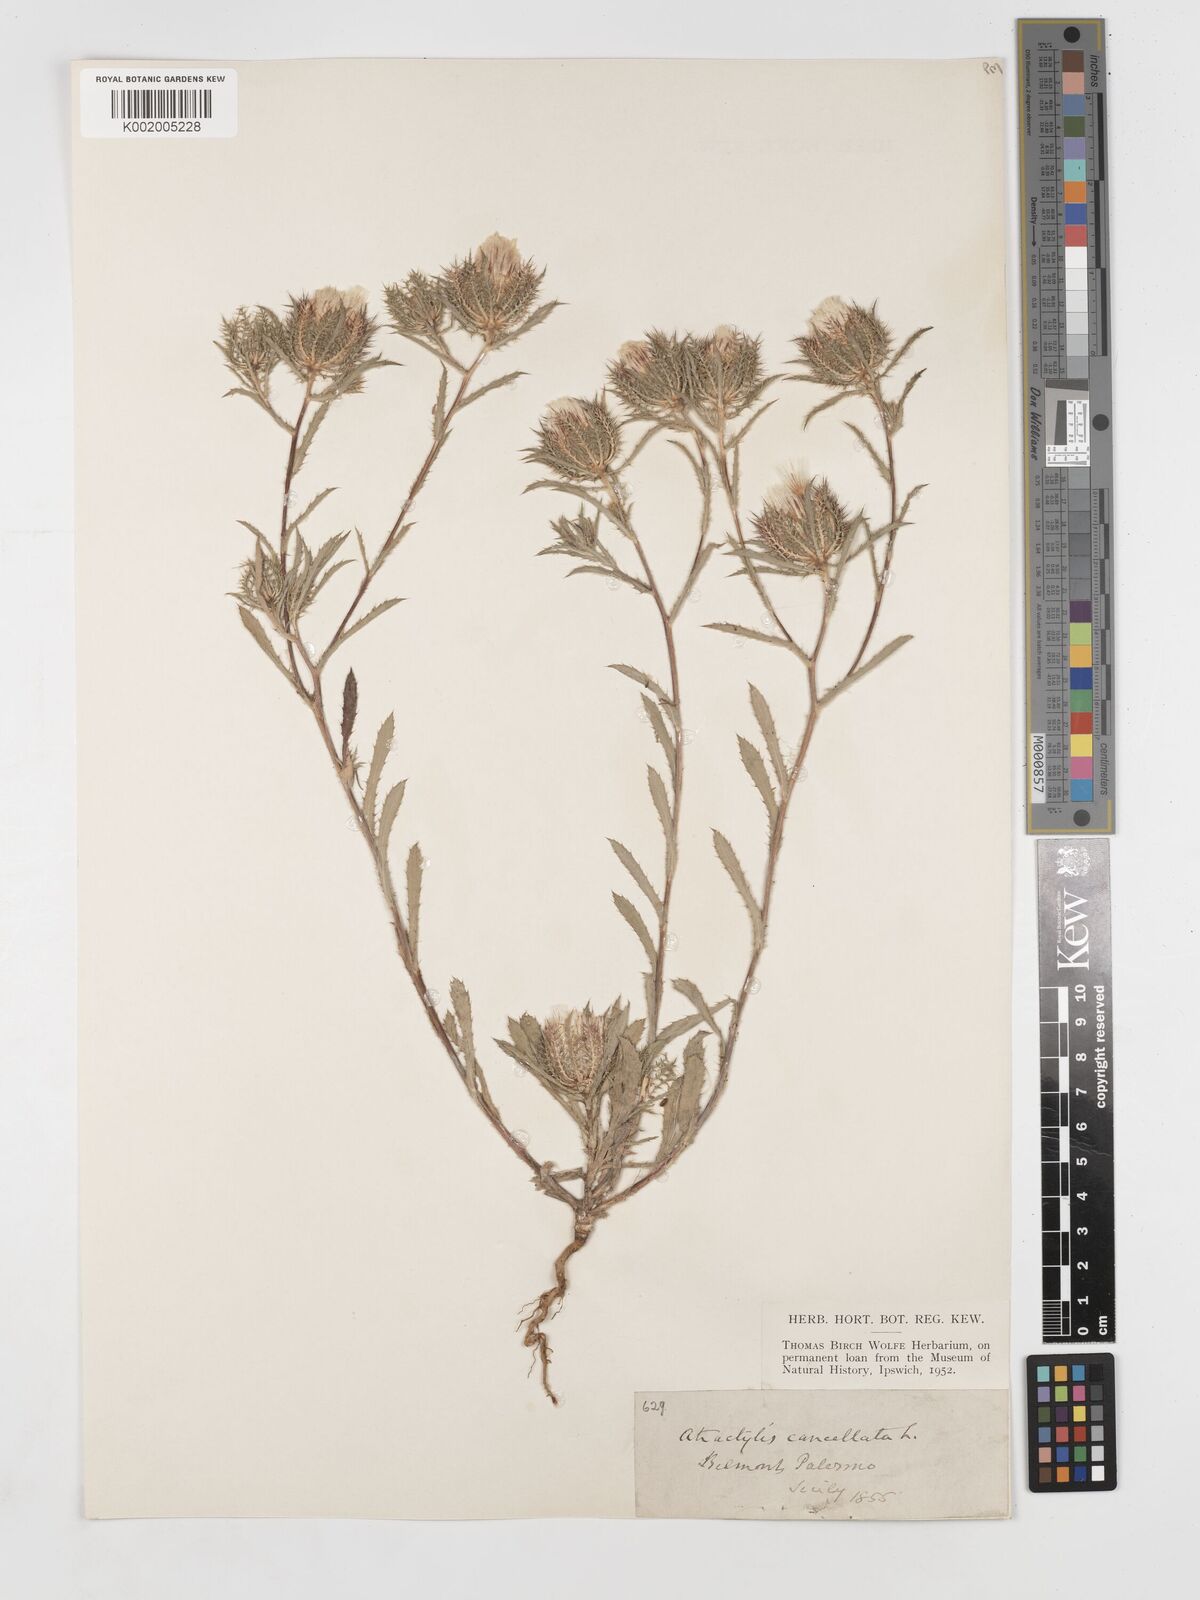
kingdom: Plantae
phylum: Tracheophyta
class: Magnoliopsida
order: Asterales
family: Asteraceae
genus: Atractylis
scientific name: Atractylis cancellata
